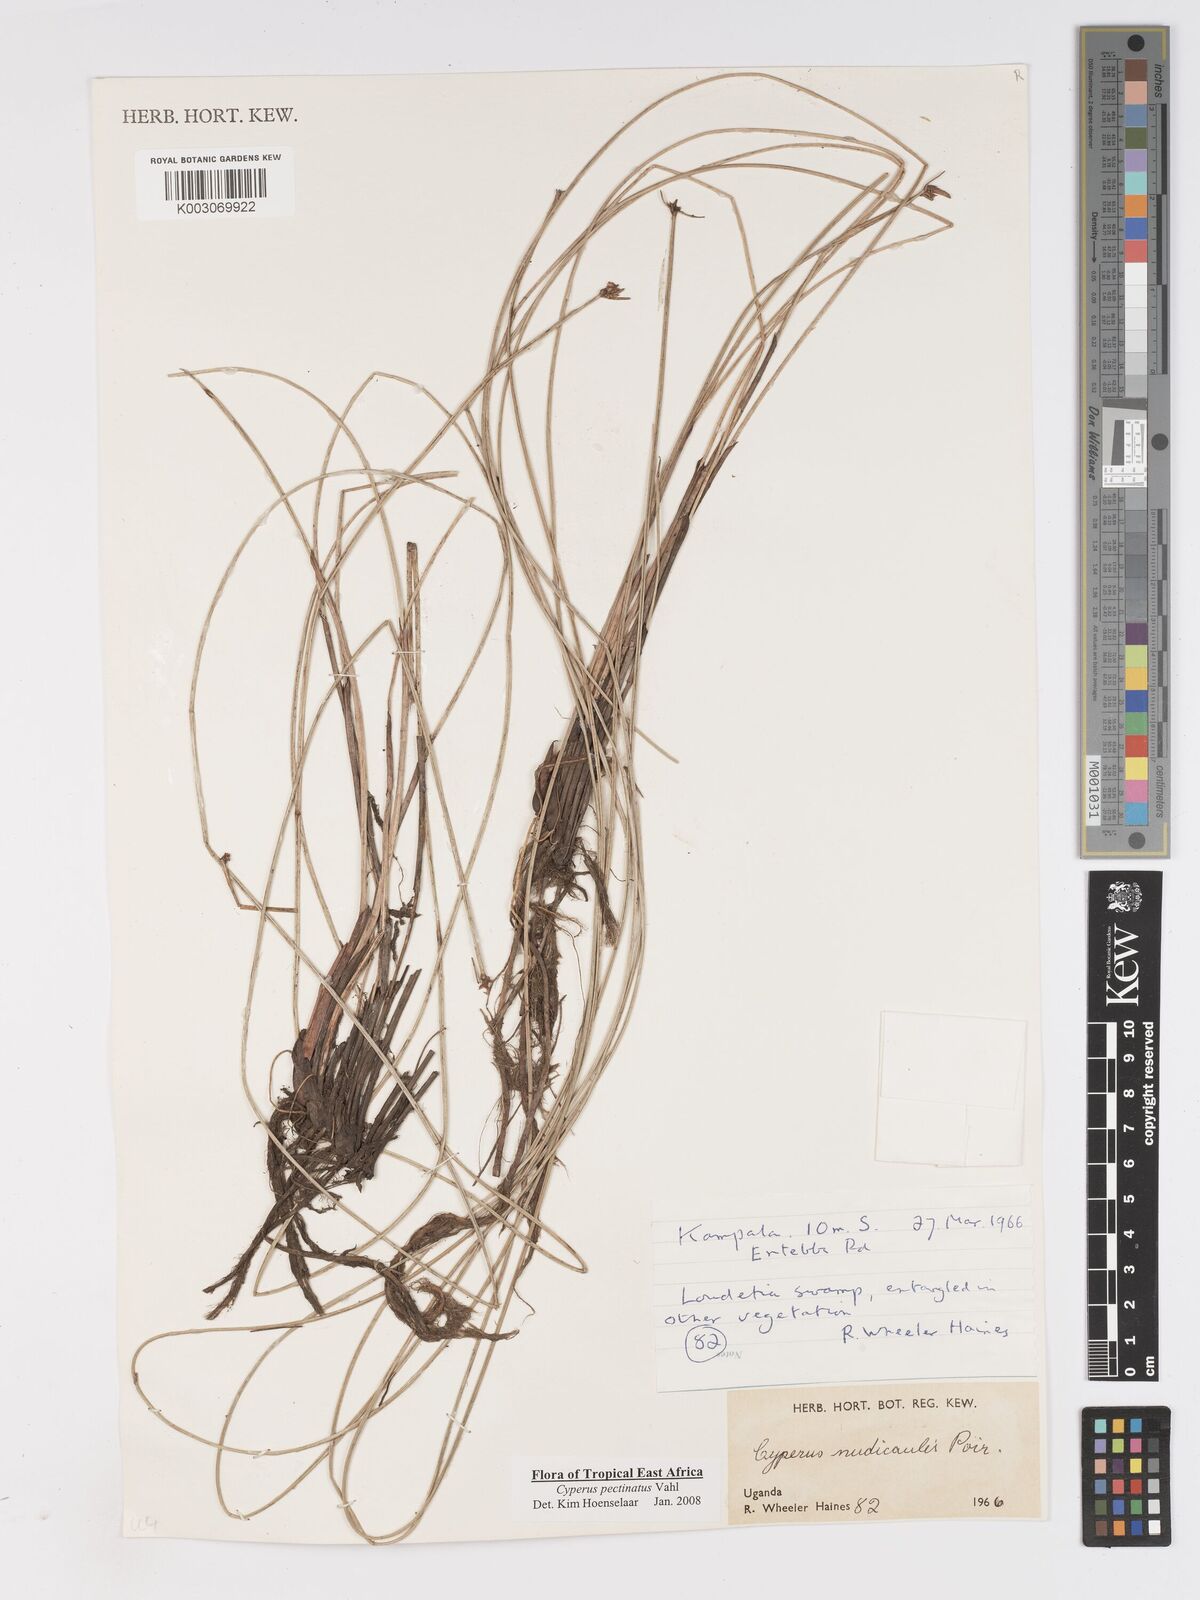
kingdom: Plantae
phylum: Tracheophyta
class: Liliopsida
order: Poales
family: Cyperaceae
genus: Cyperus
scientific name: Cyperus pectinatus
